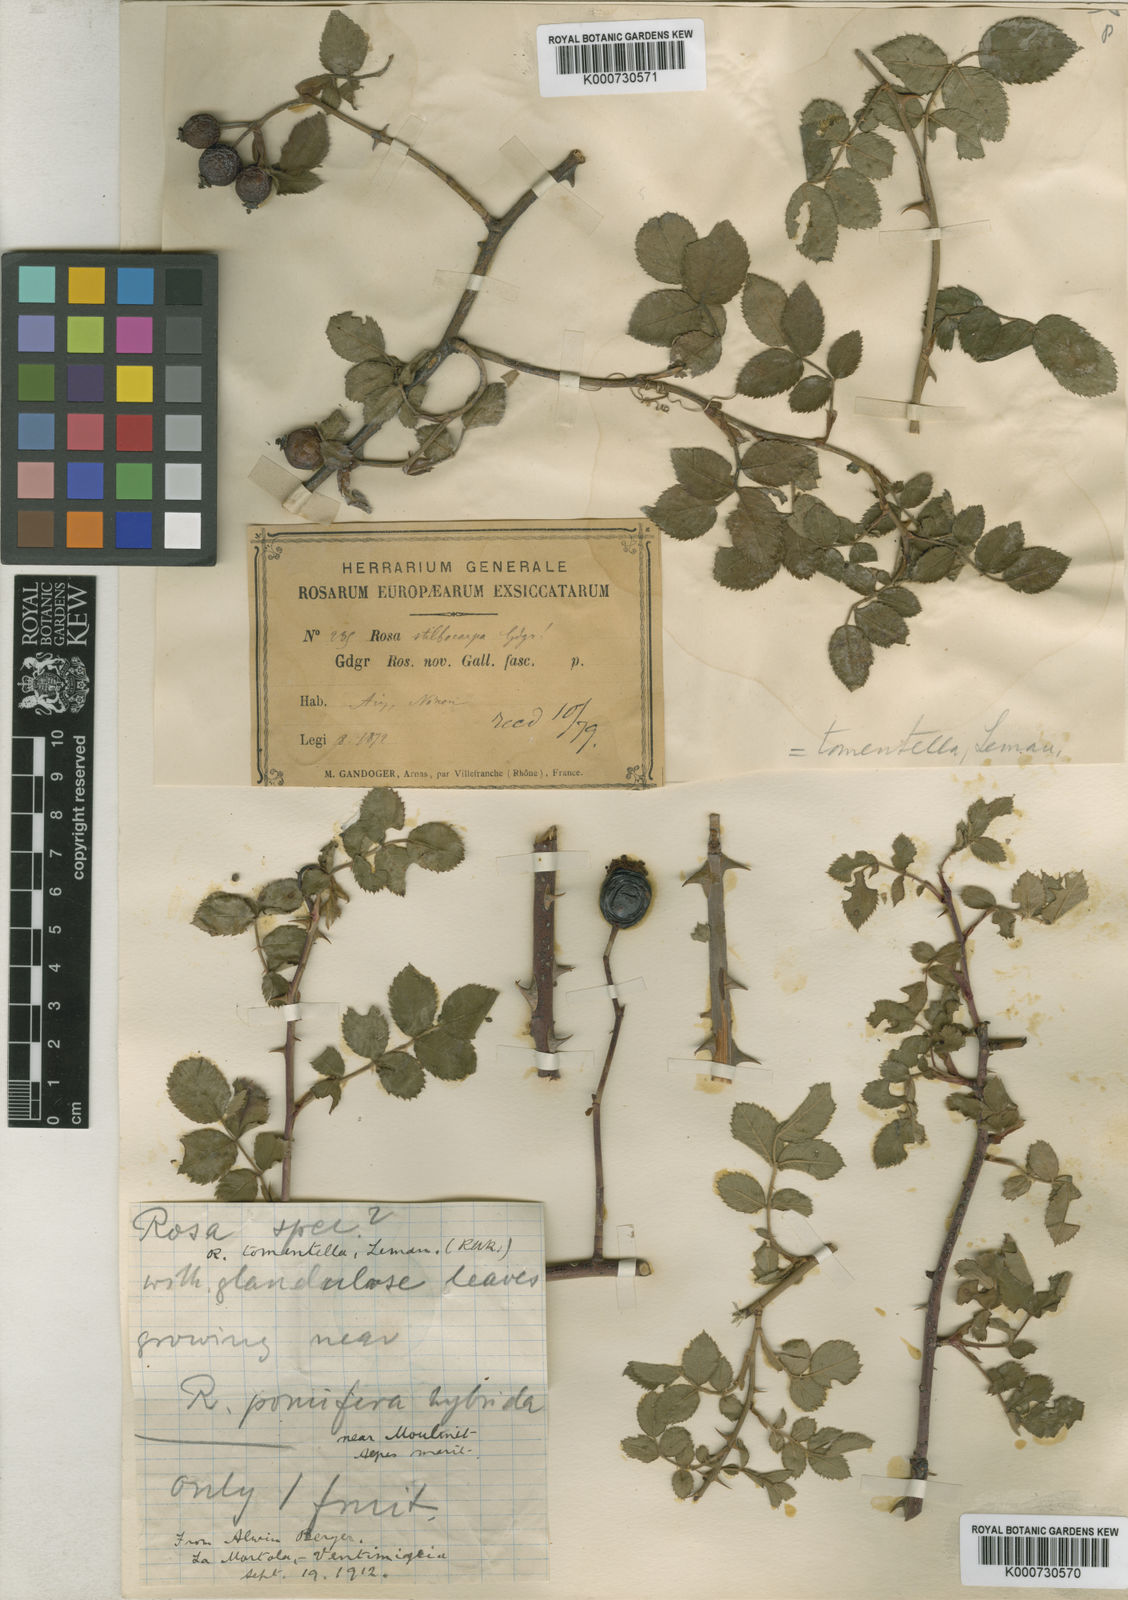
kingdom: Plantae
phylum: Tracheophyta
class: Magnoliopsida
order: Rosales
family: Rosaceae
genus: Rosa
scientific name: Rosa
